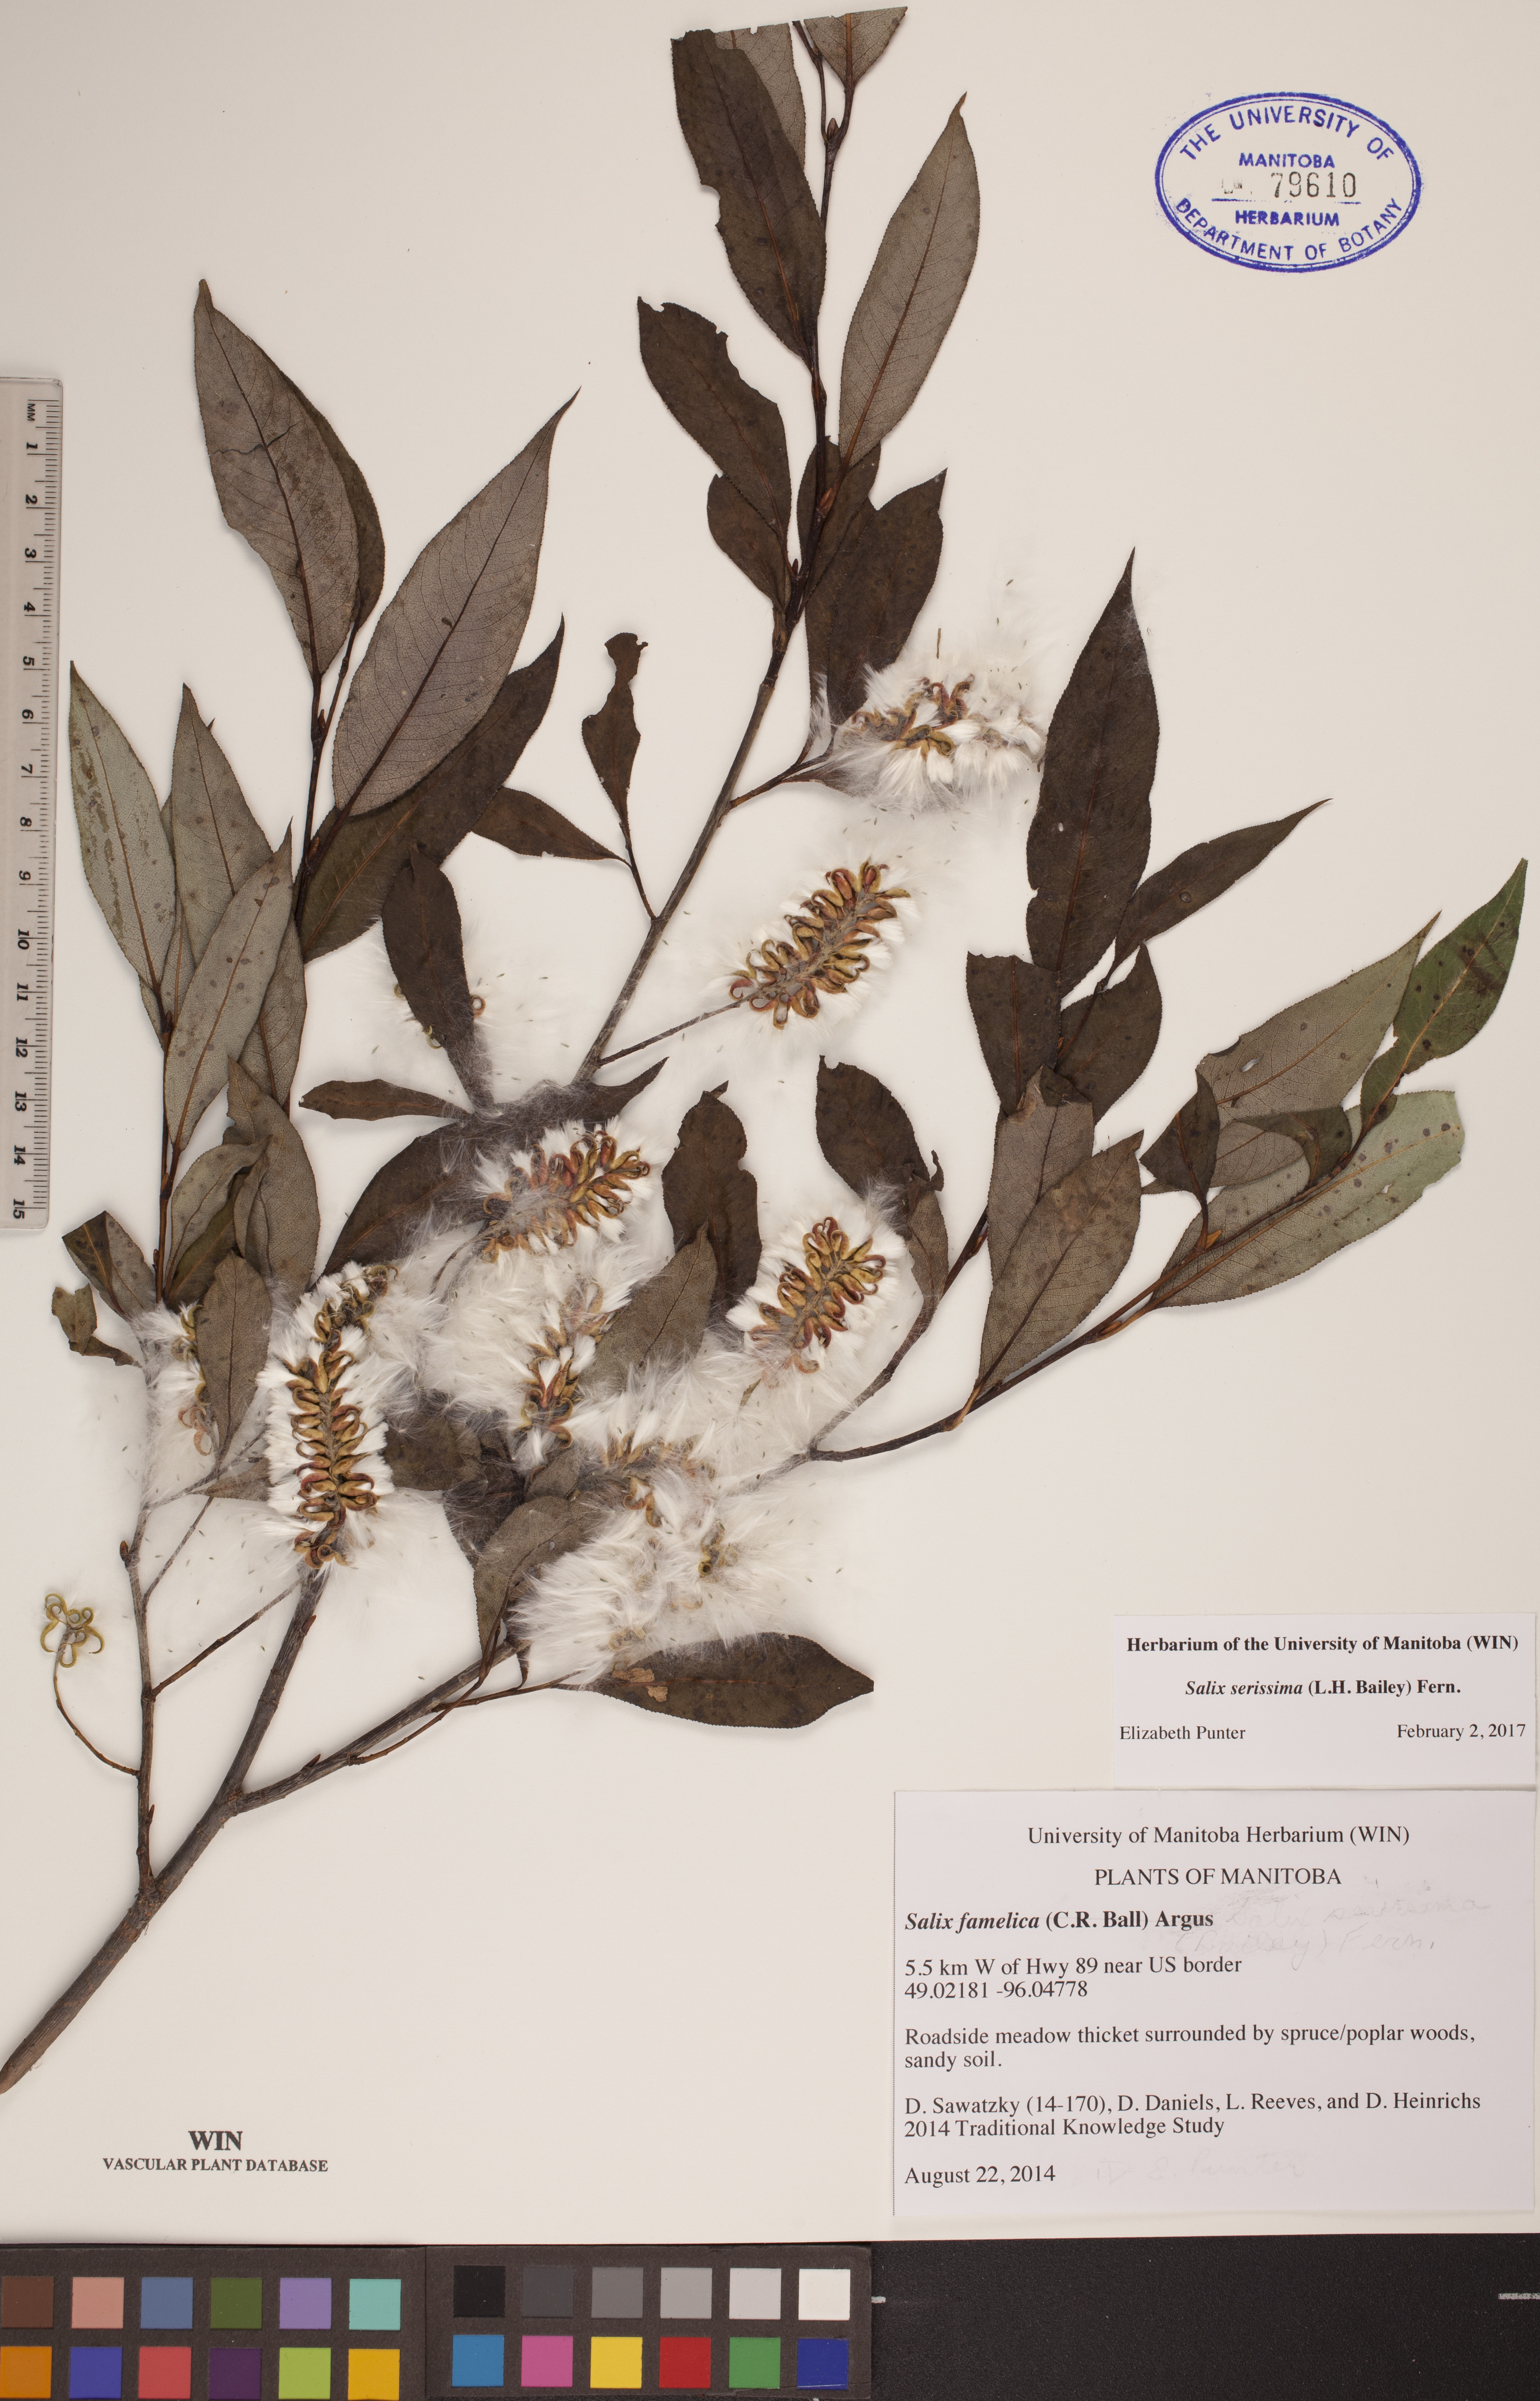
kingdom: Plantae
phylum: Tracheophyta
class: Magnoliopsida
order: Malpighiales
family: Salicaceae
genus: Salix
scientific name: Salix serissima
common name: Autumn willow
